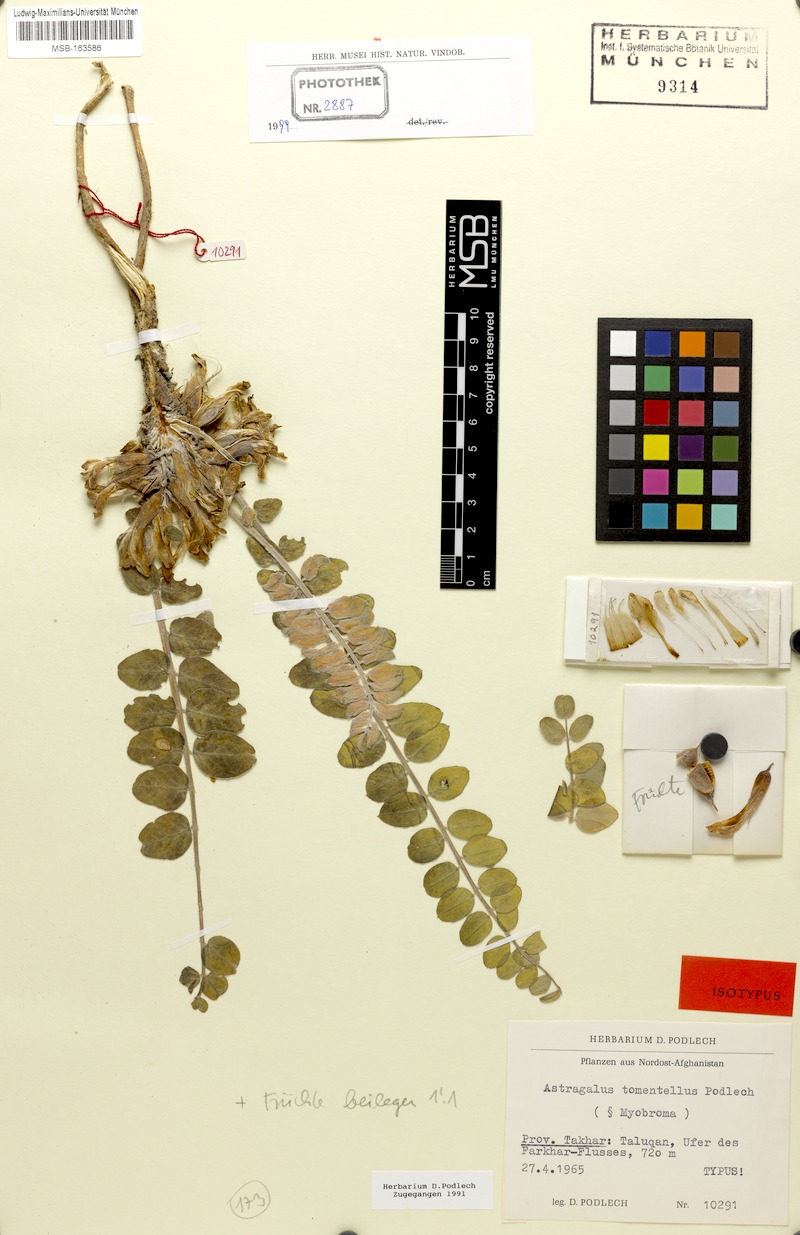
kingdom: Plantae
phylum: Tracheophyta
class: Magnoliopsida
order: Fabales
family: Fabaceae
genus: Astragalus
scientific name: Astragalus tomentellus
